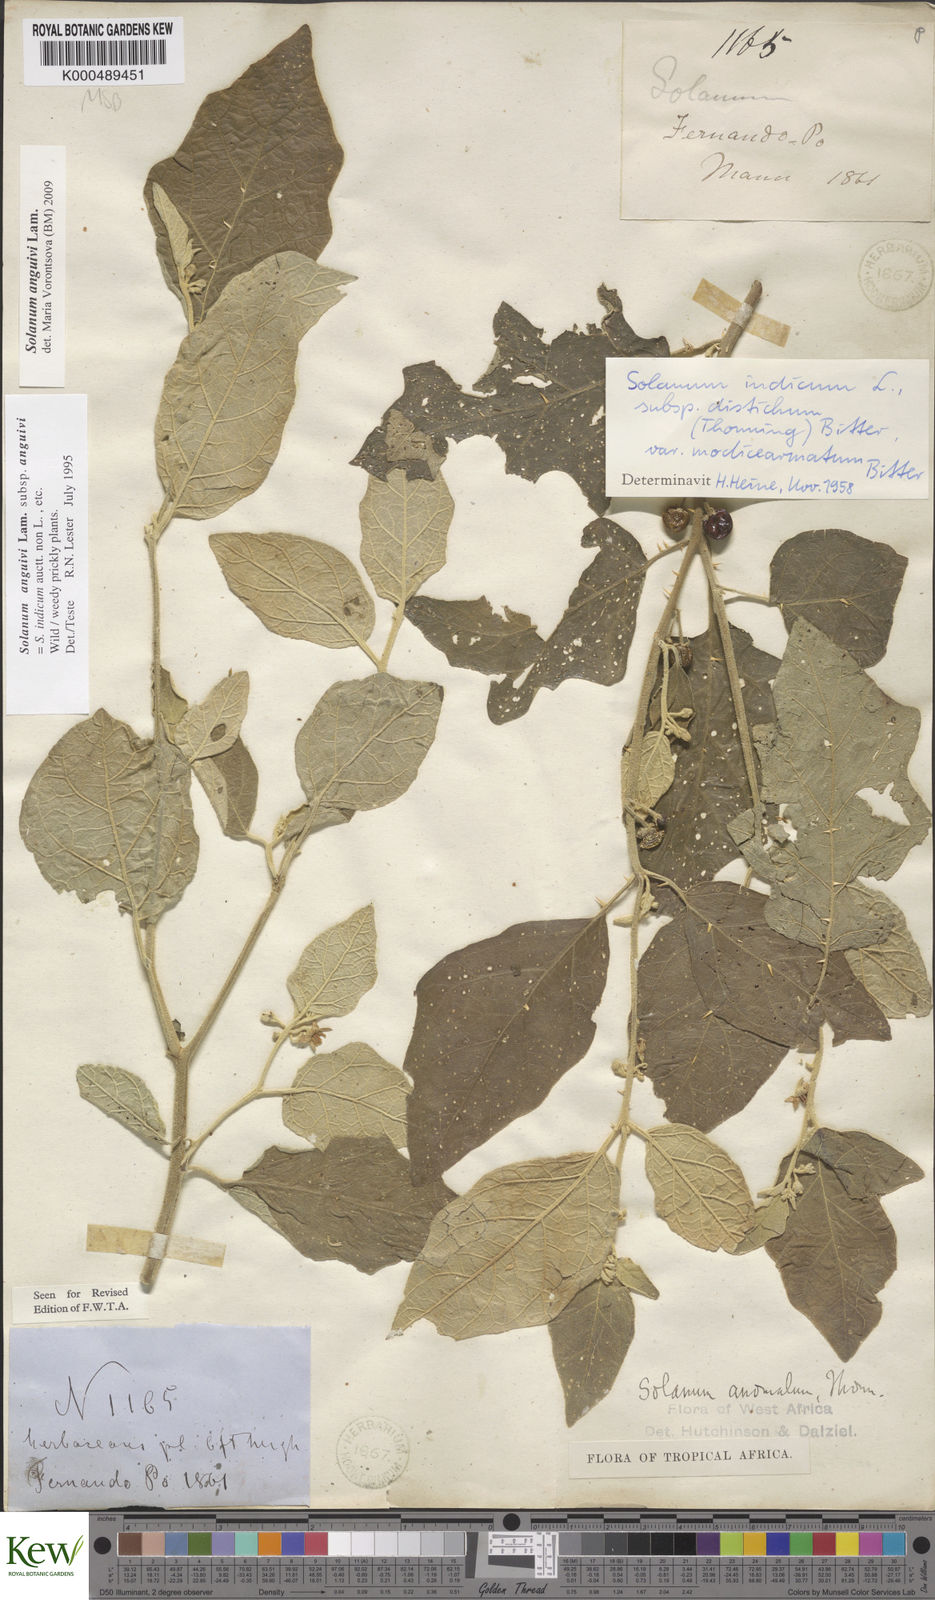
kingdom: Plantae
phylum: Tracheophyta
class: Magnoliopsida
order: Solanales
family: Solanaceae
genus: Solanum
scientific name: Solanum anguivi
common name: Forest bitterberry
